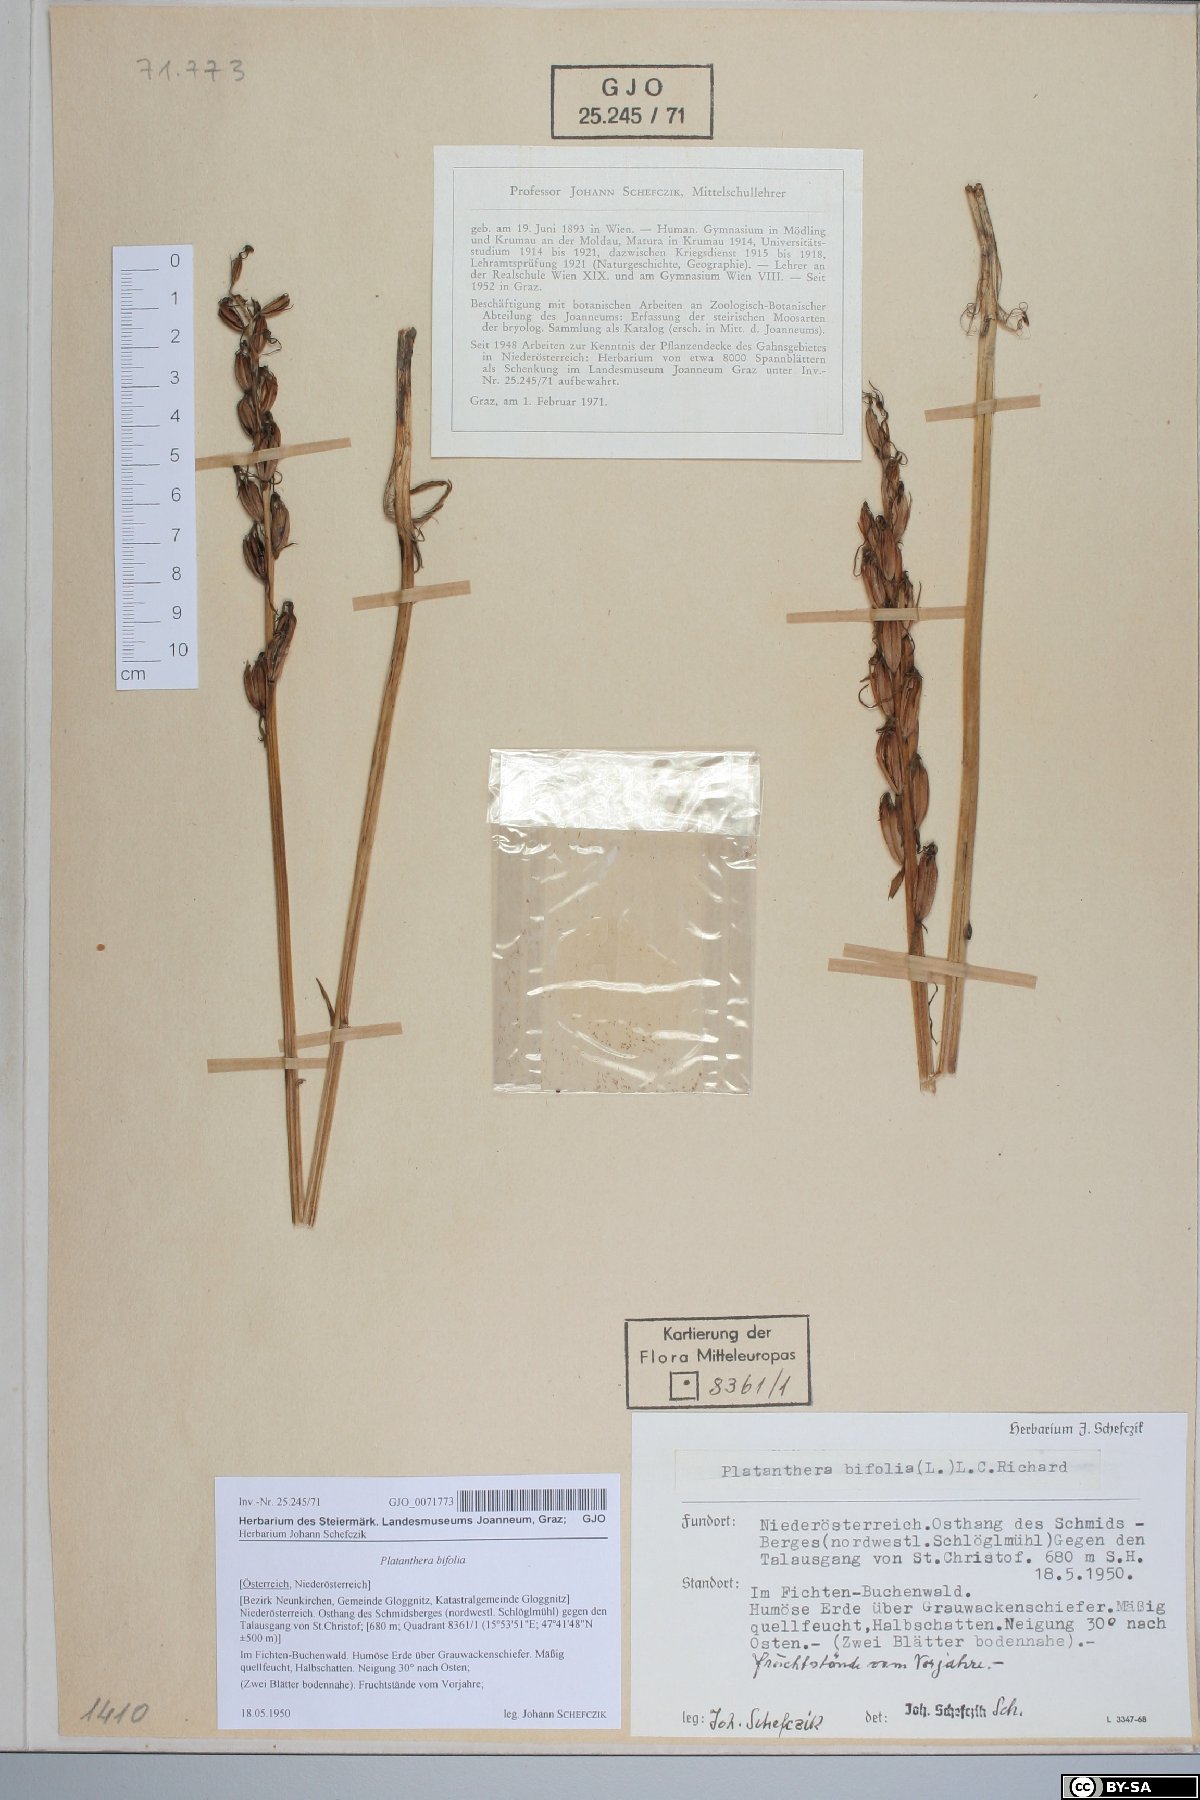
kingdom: Plantae
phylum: Tracheophyta
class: Liliopsida
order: Asparagales
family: Orchidaceae
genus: Platanthera
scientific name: Platanthera bifolia
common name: Lesser butterfly-orchid
